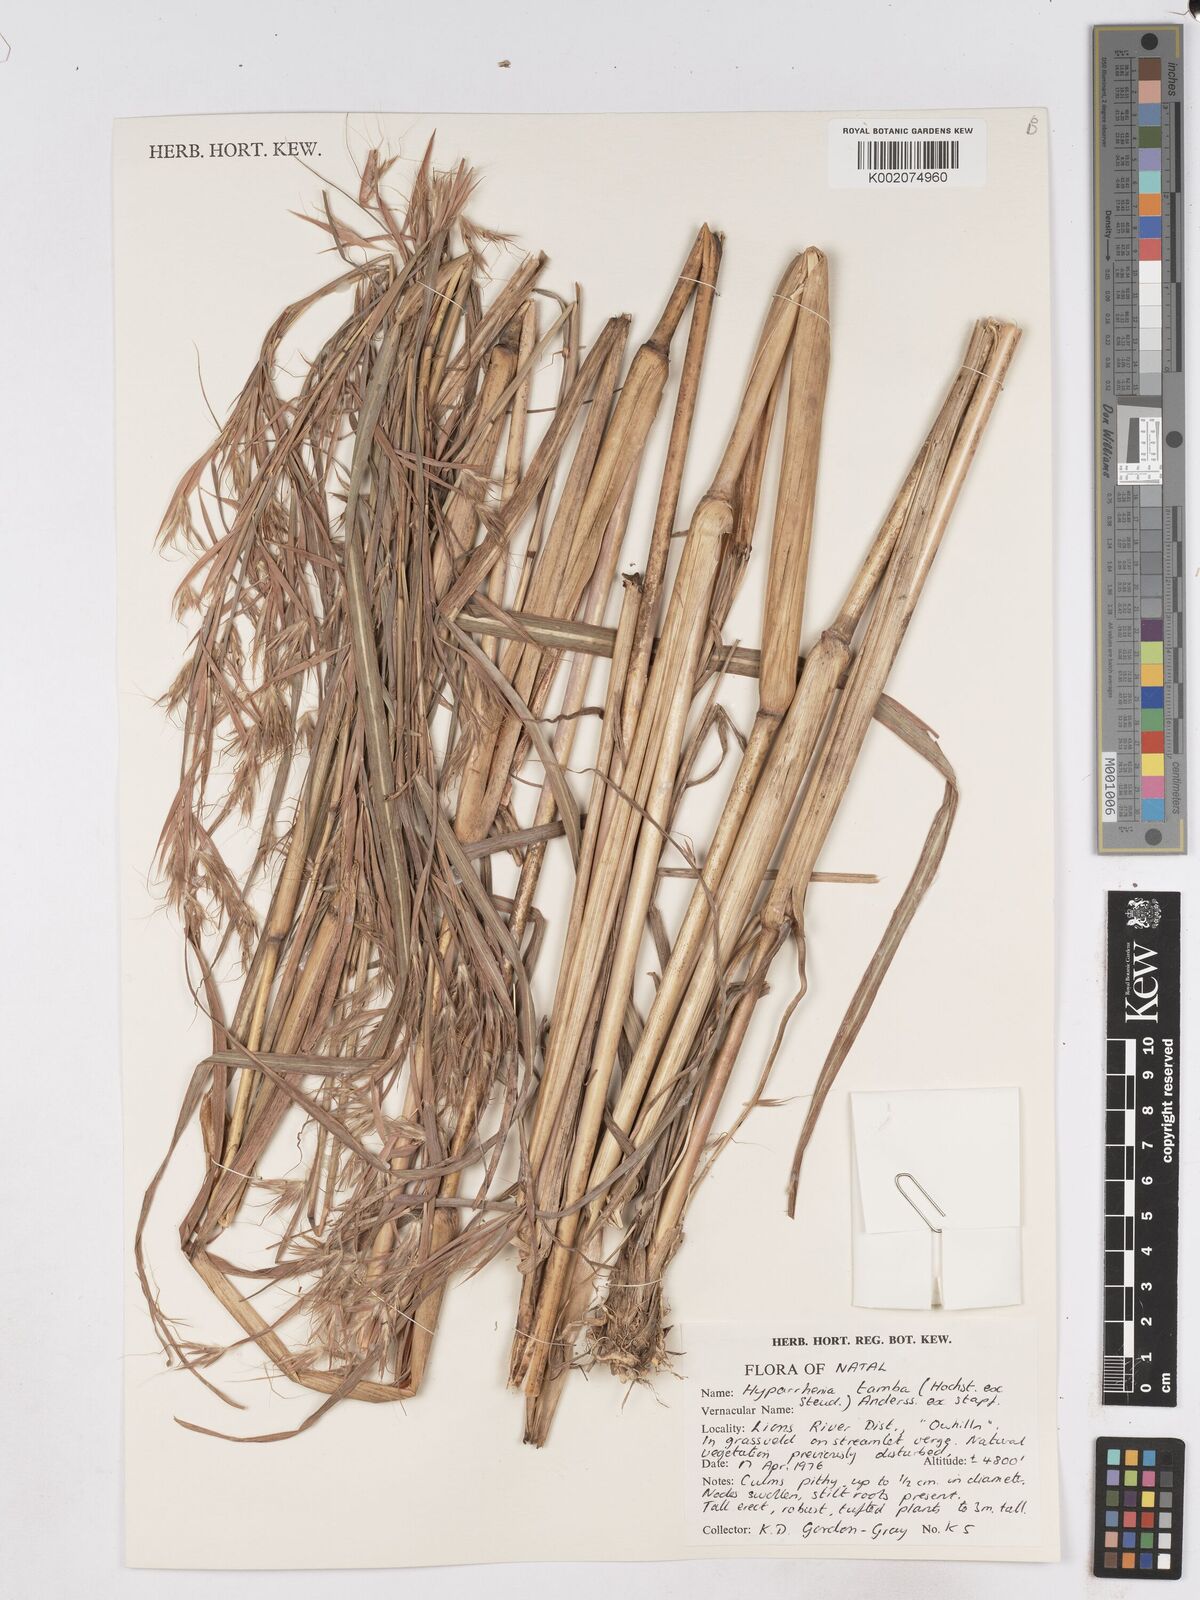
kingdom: Plantae
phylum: Tracheophyta
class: Liliopsida
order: Poales
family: Poaceae
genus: Hyparrhenia
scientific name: Hyparrhenia tamba
